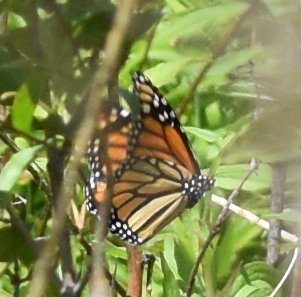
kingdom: Animalia
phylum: Arthropoda
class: Insecta
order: Lepidoptera
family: Nymphalidae
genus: Danaus
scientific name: Danaus plexippus
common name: Monarch
